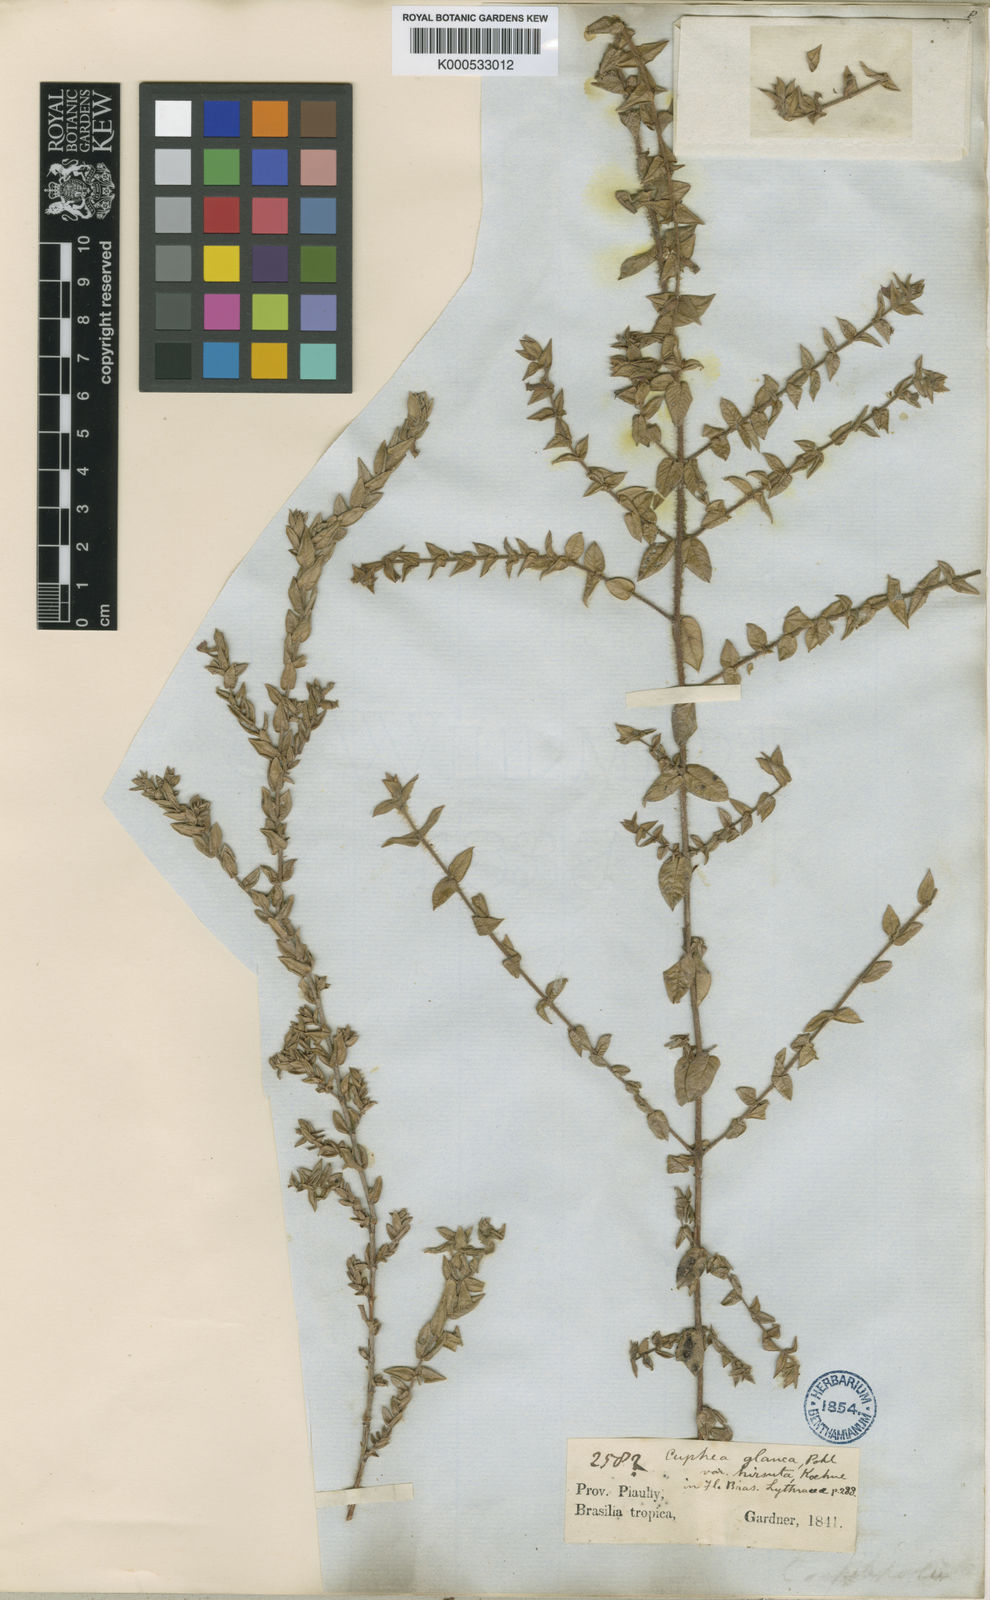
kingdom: Plantae
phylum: Tracheophyta
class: Magnoliopsida
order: Myrtales
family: Lythraceae
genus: Cuphea
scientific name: Cuphea glauca
